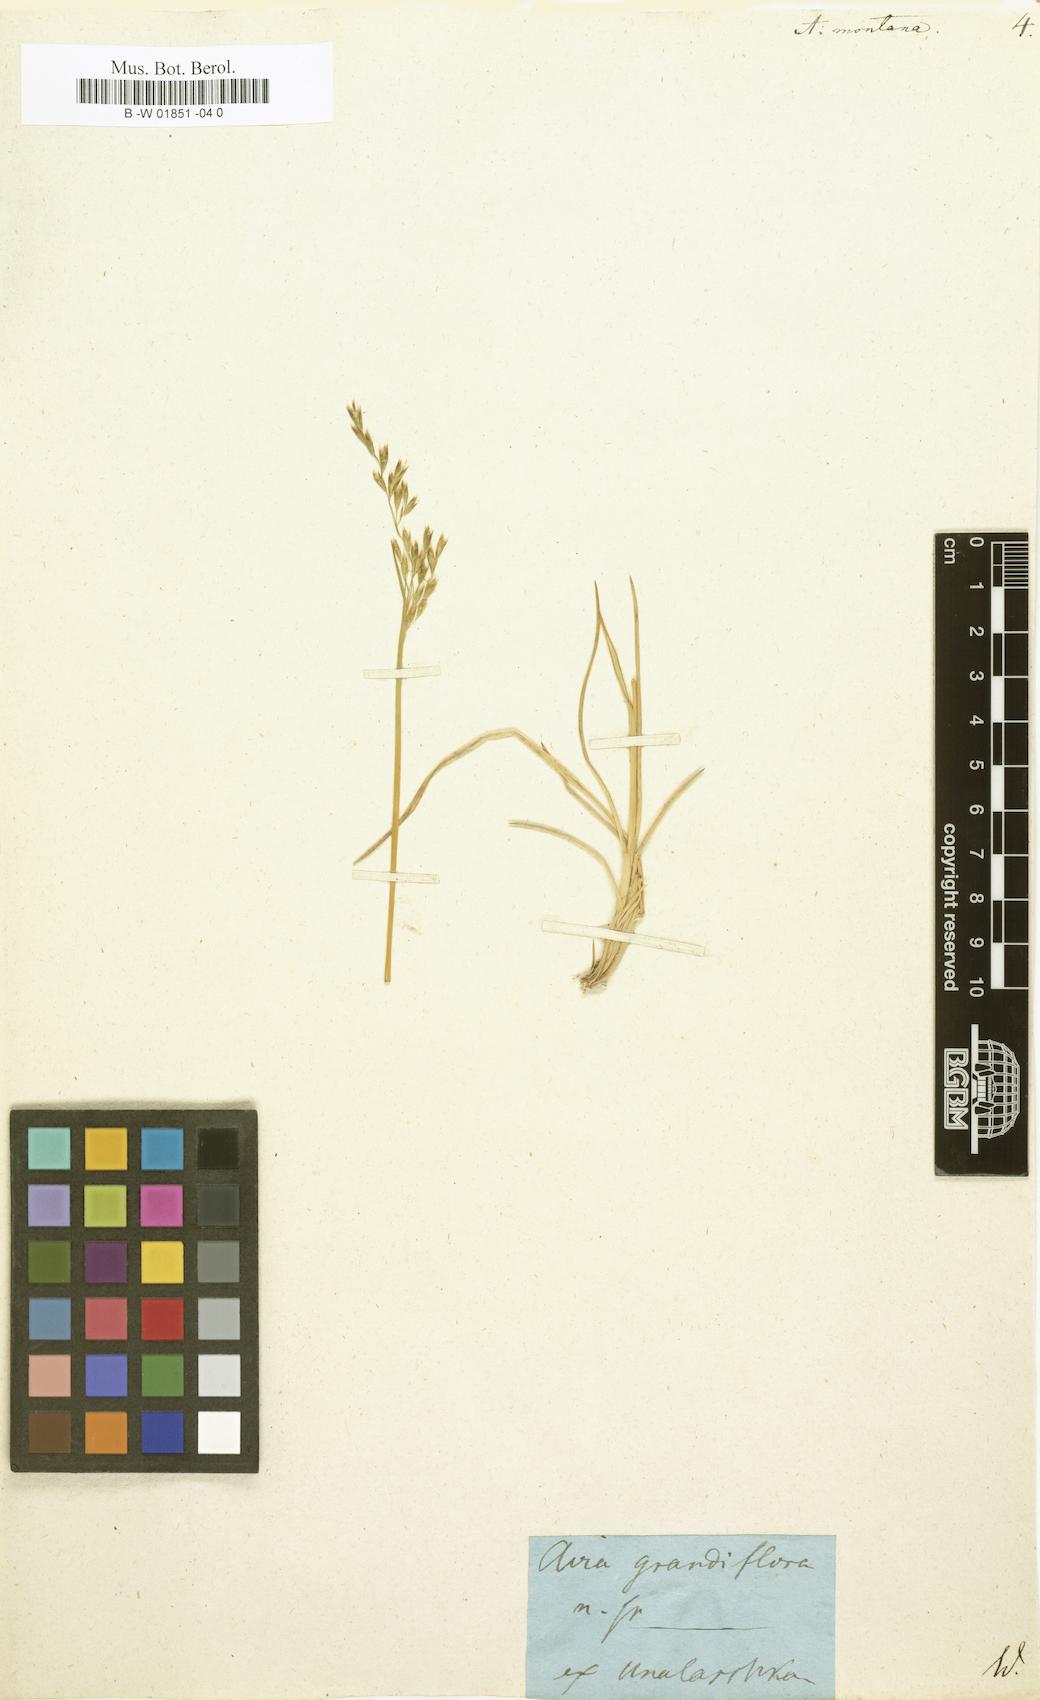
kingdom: Plantae
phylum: Tracheophyta
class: Liliopsida
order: Poales
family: Poaceae
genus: Avenella
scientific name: Avenella flexuosa
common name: Wavy hairgrass
